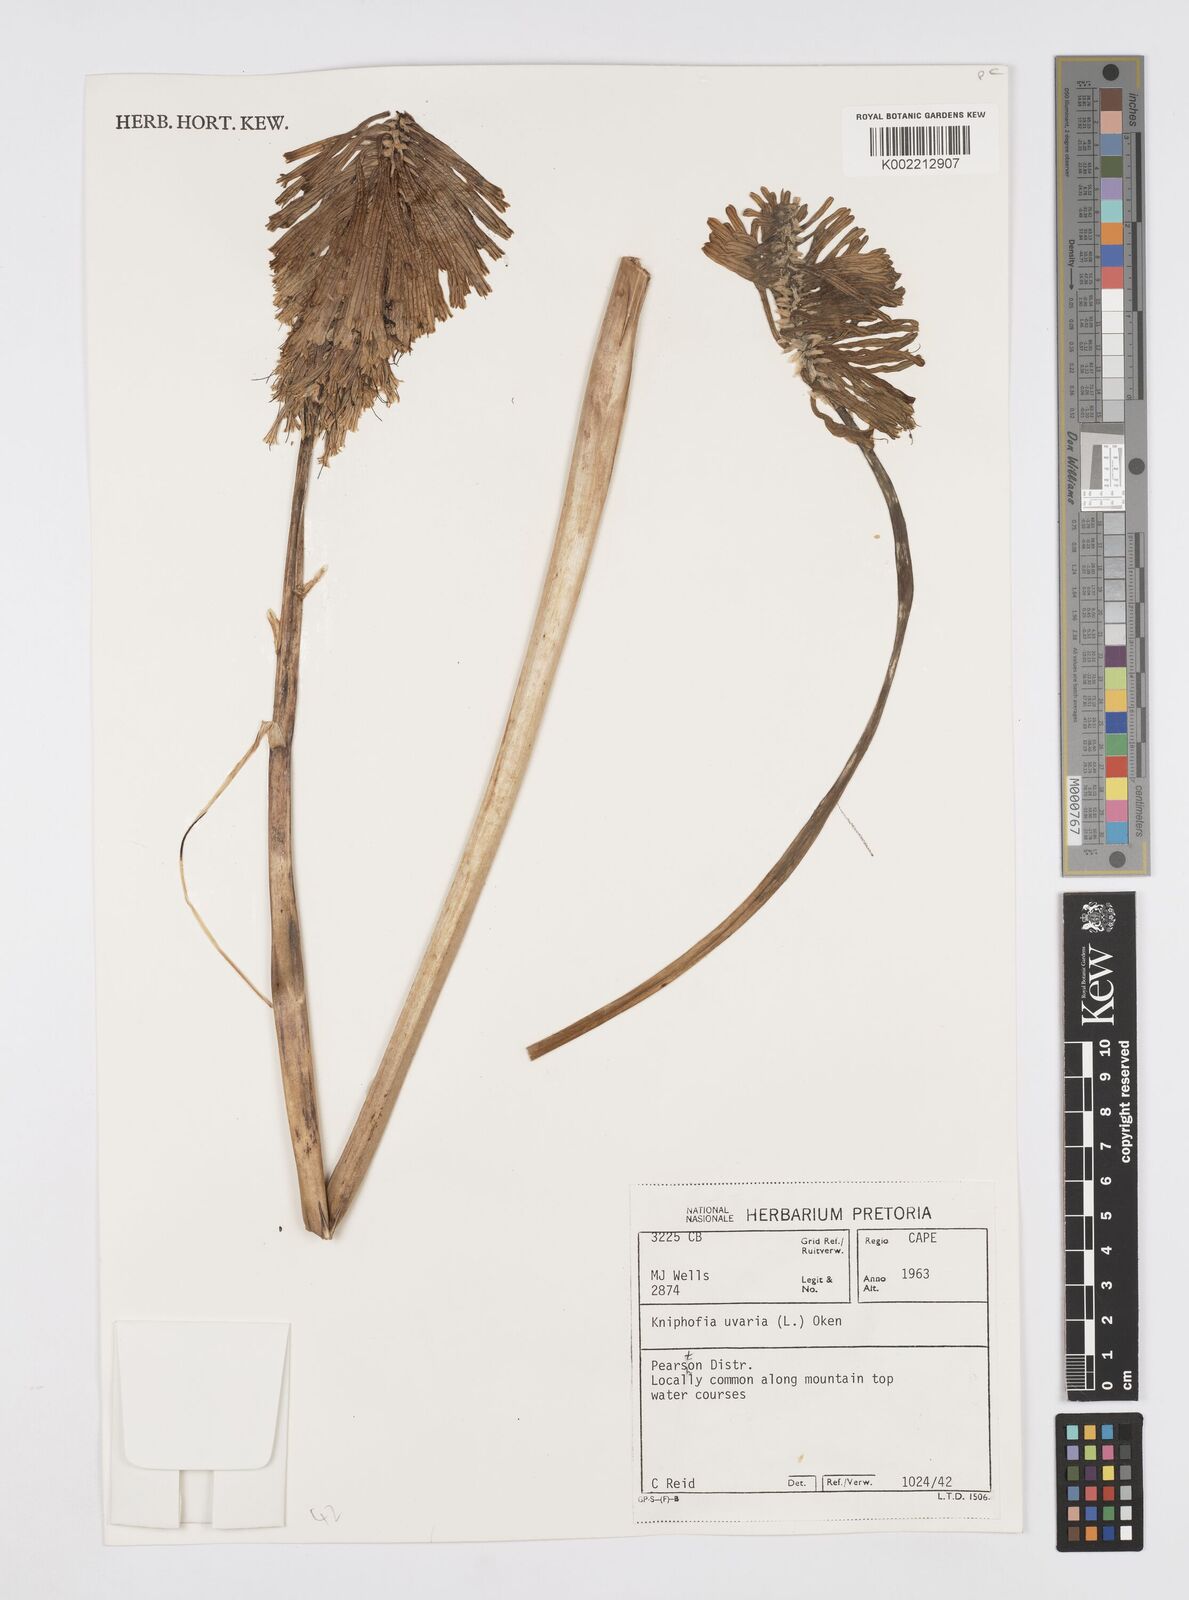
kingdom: Plantae
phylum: Tracheophyta
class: Liliopsida
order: Asparagales
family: Asphodelaceae
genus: Kniphofia
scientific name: Kniphofia uvaria
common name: Red-hot-poker
